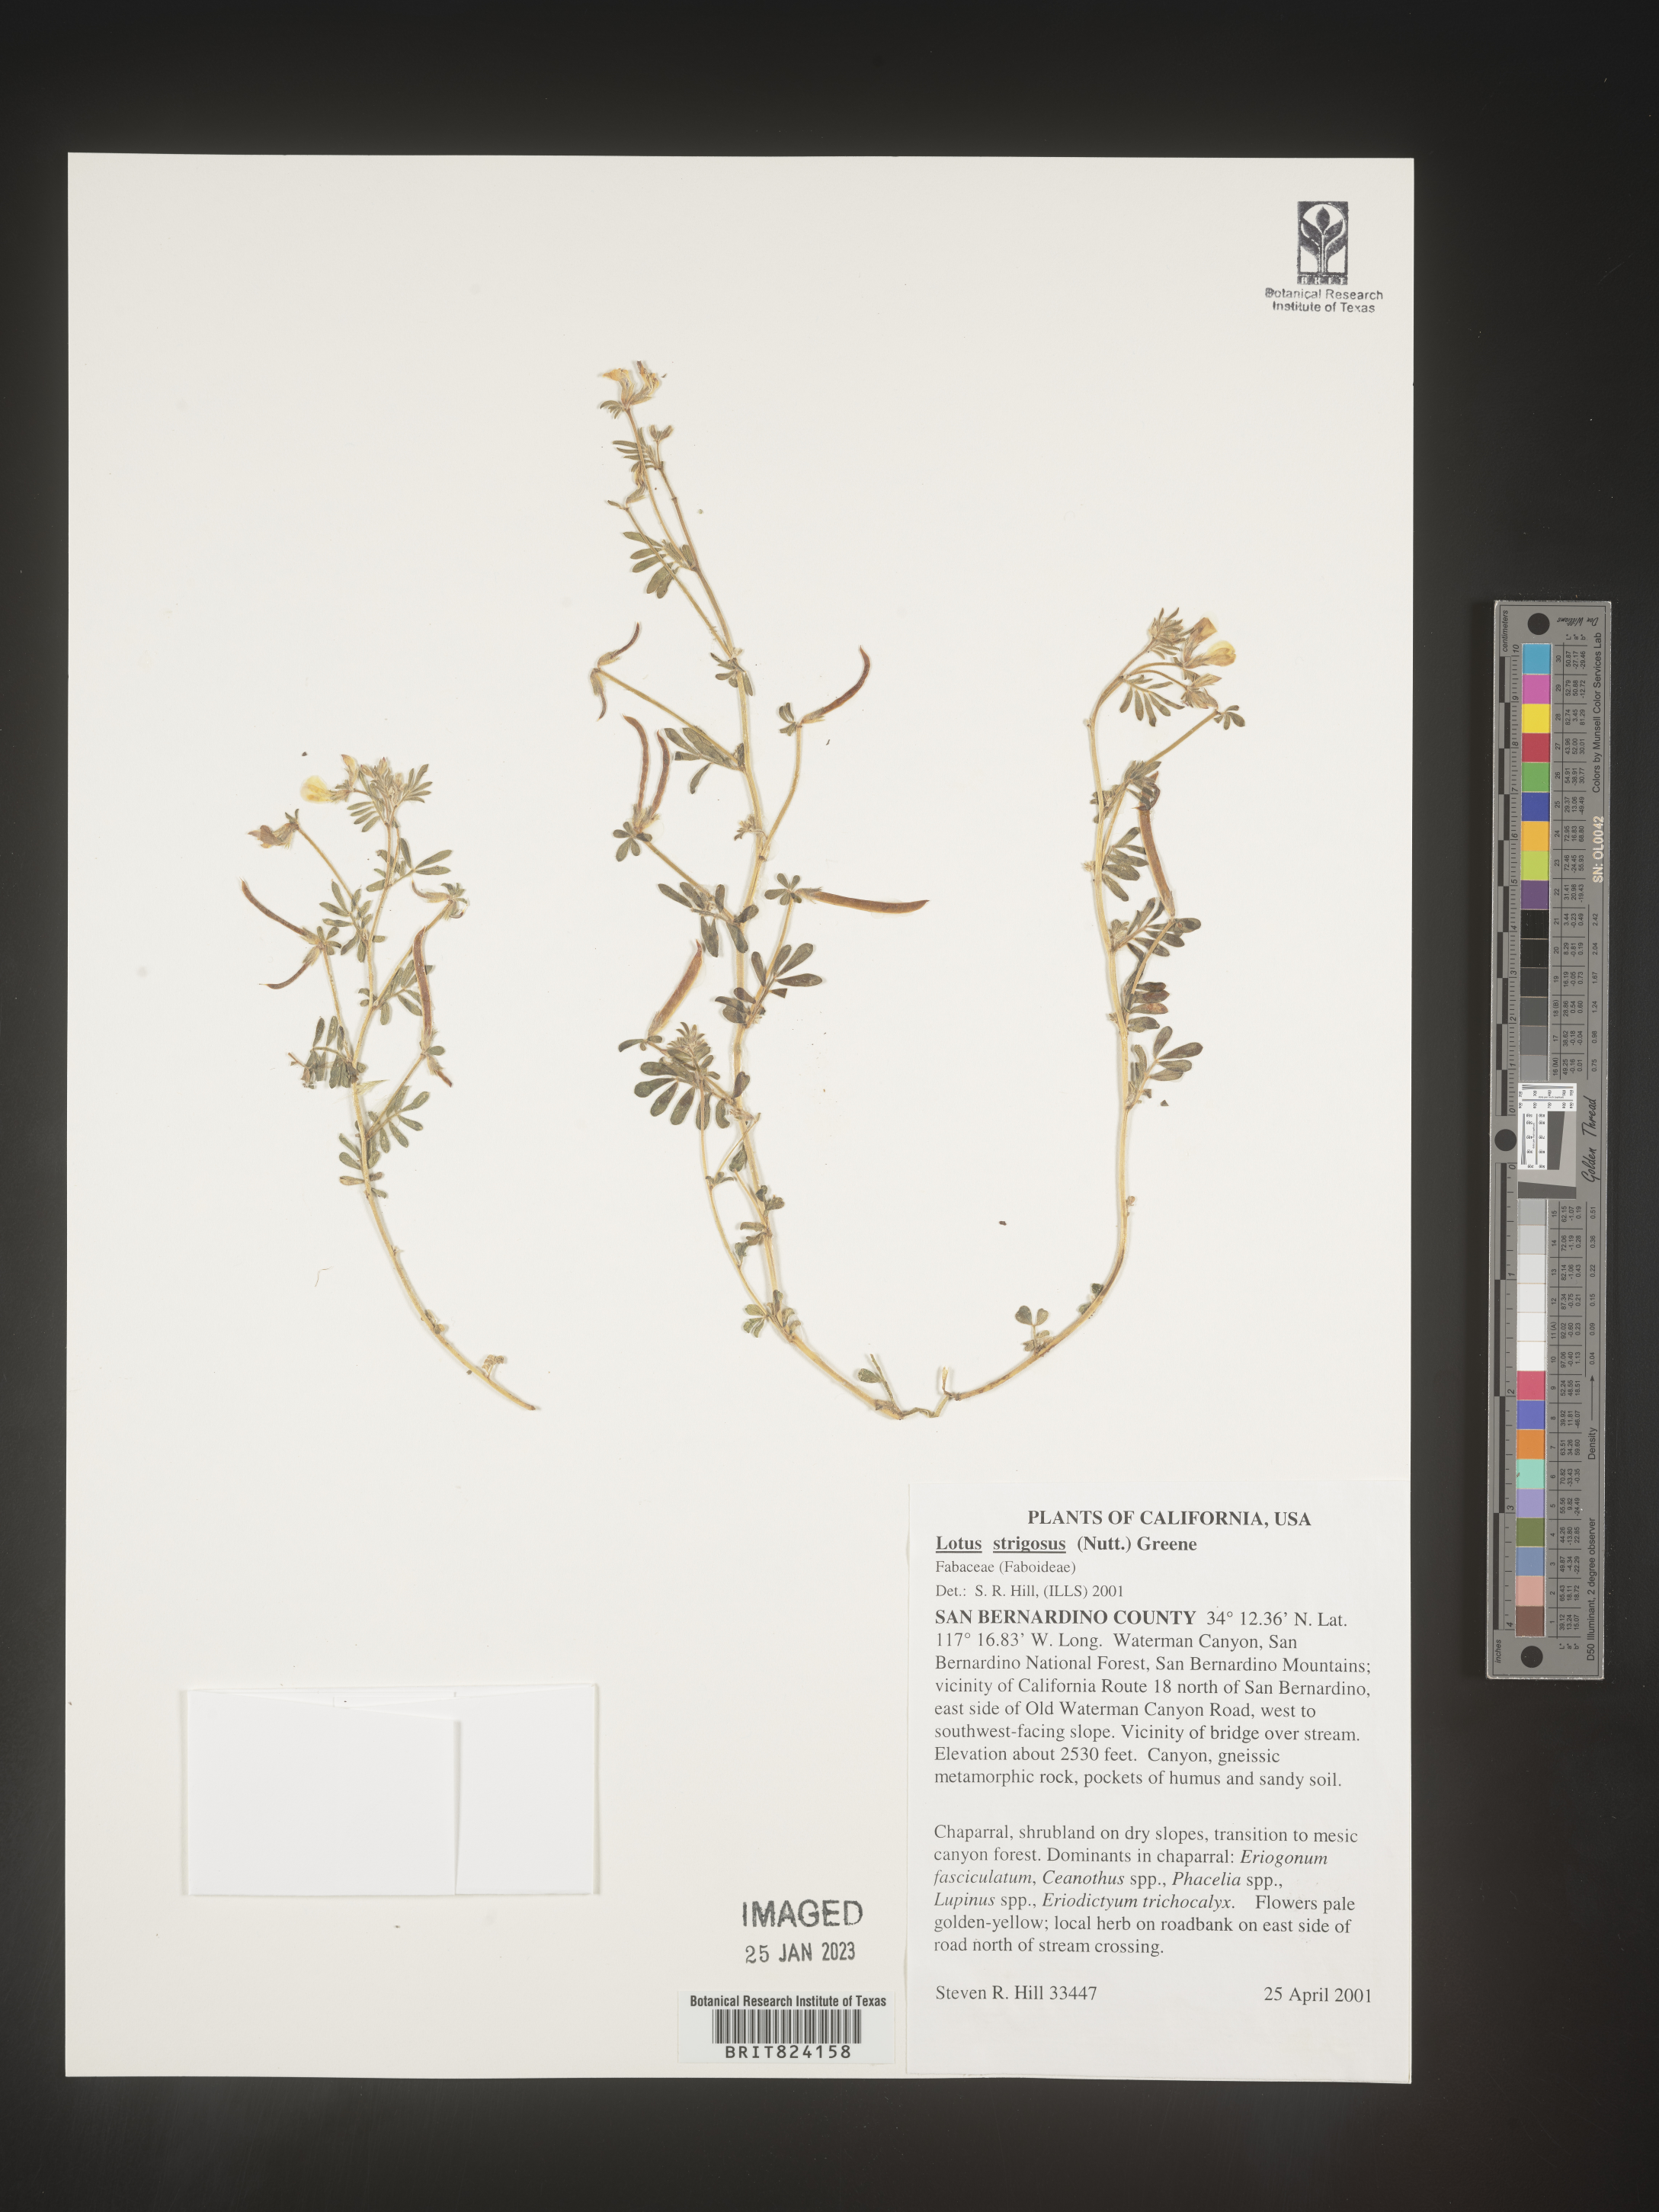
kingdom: Plantae
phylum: Tracheophyta
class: Magnoliopsida
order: Fabales
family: Fabaceae
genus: Lotus
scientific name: Lotus
